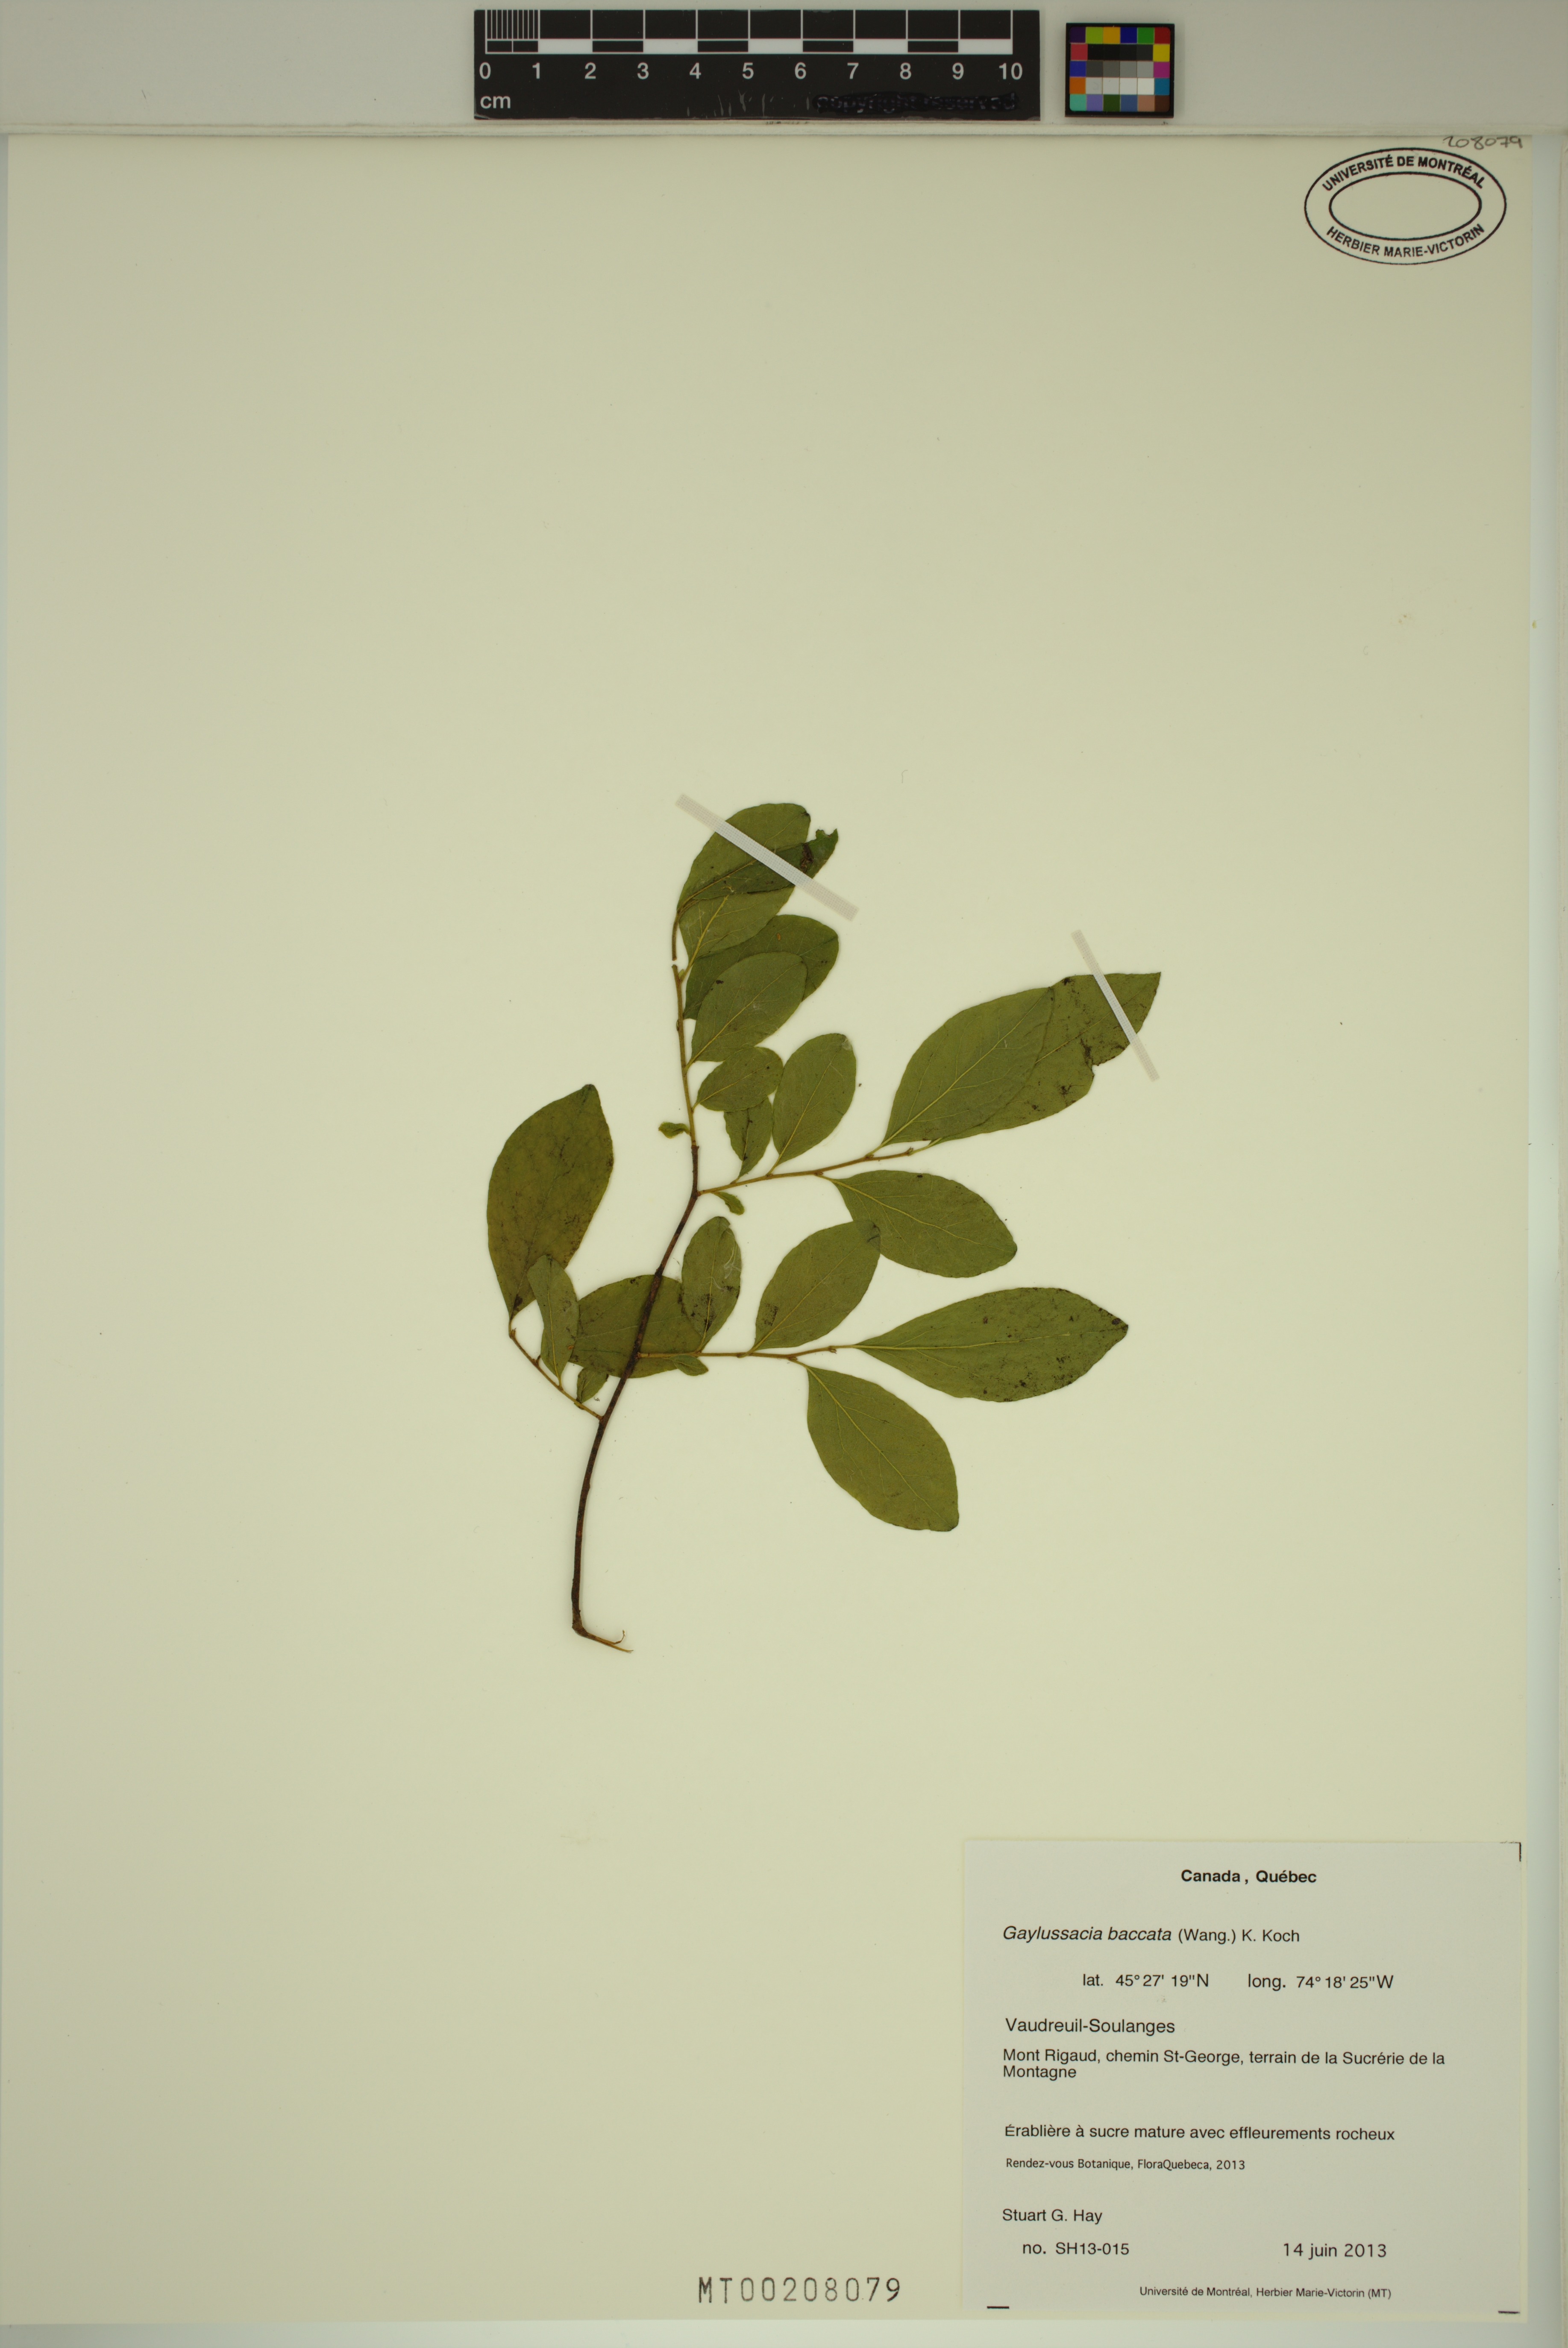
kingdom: Plantae
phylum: Tracheophyta
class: Magnoliopsida
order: Ericales
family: Ericaceae
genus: Gaylussacia
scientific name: Gaylussacia baccata
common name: Black huckleberry
